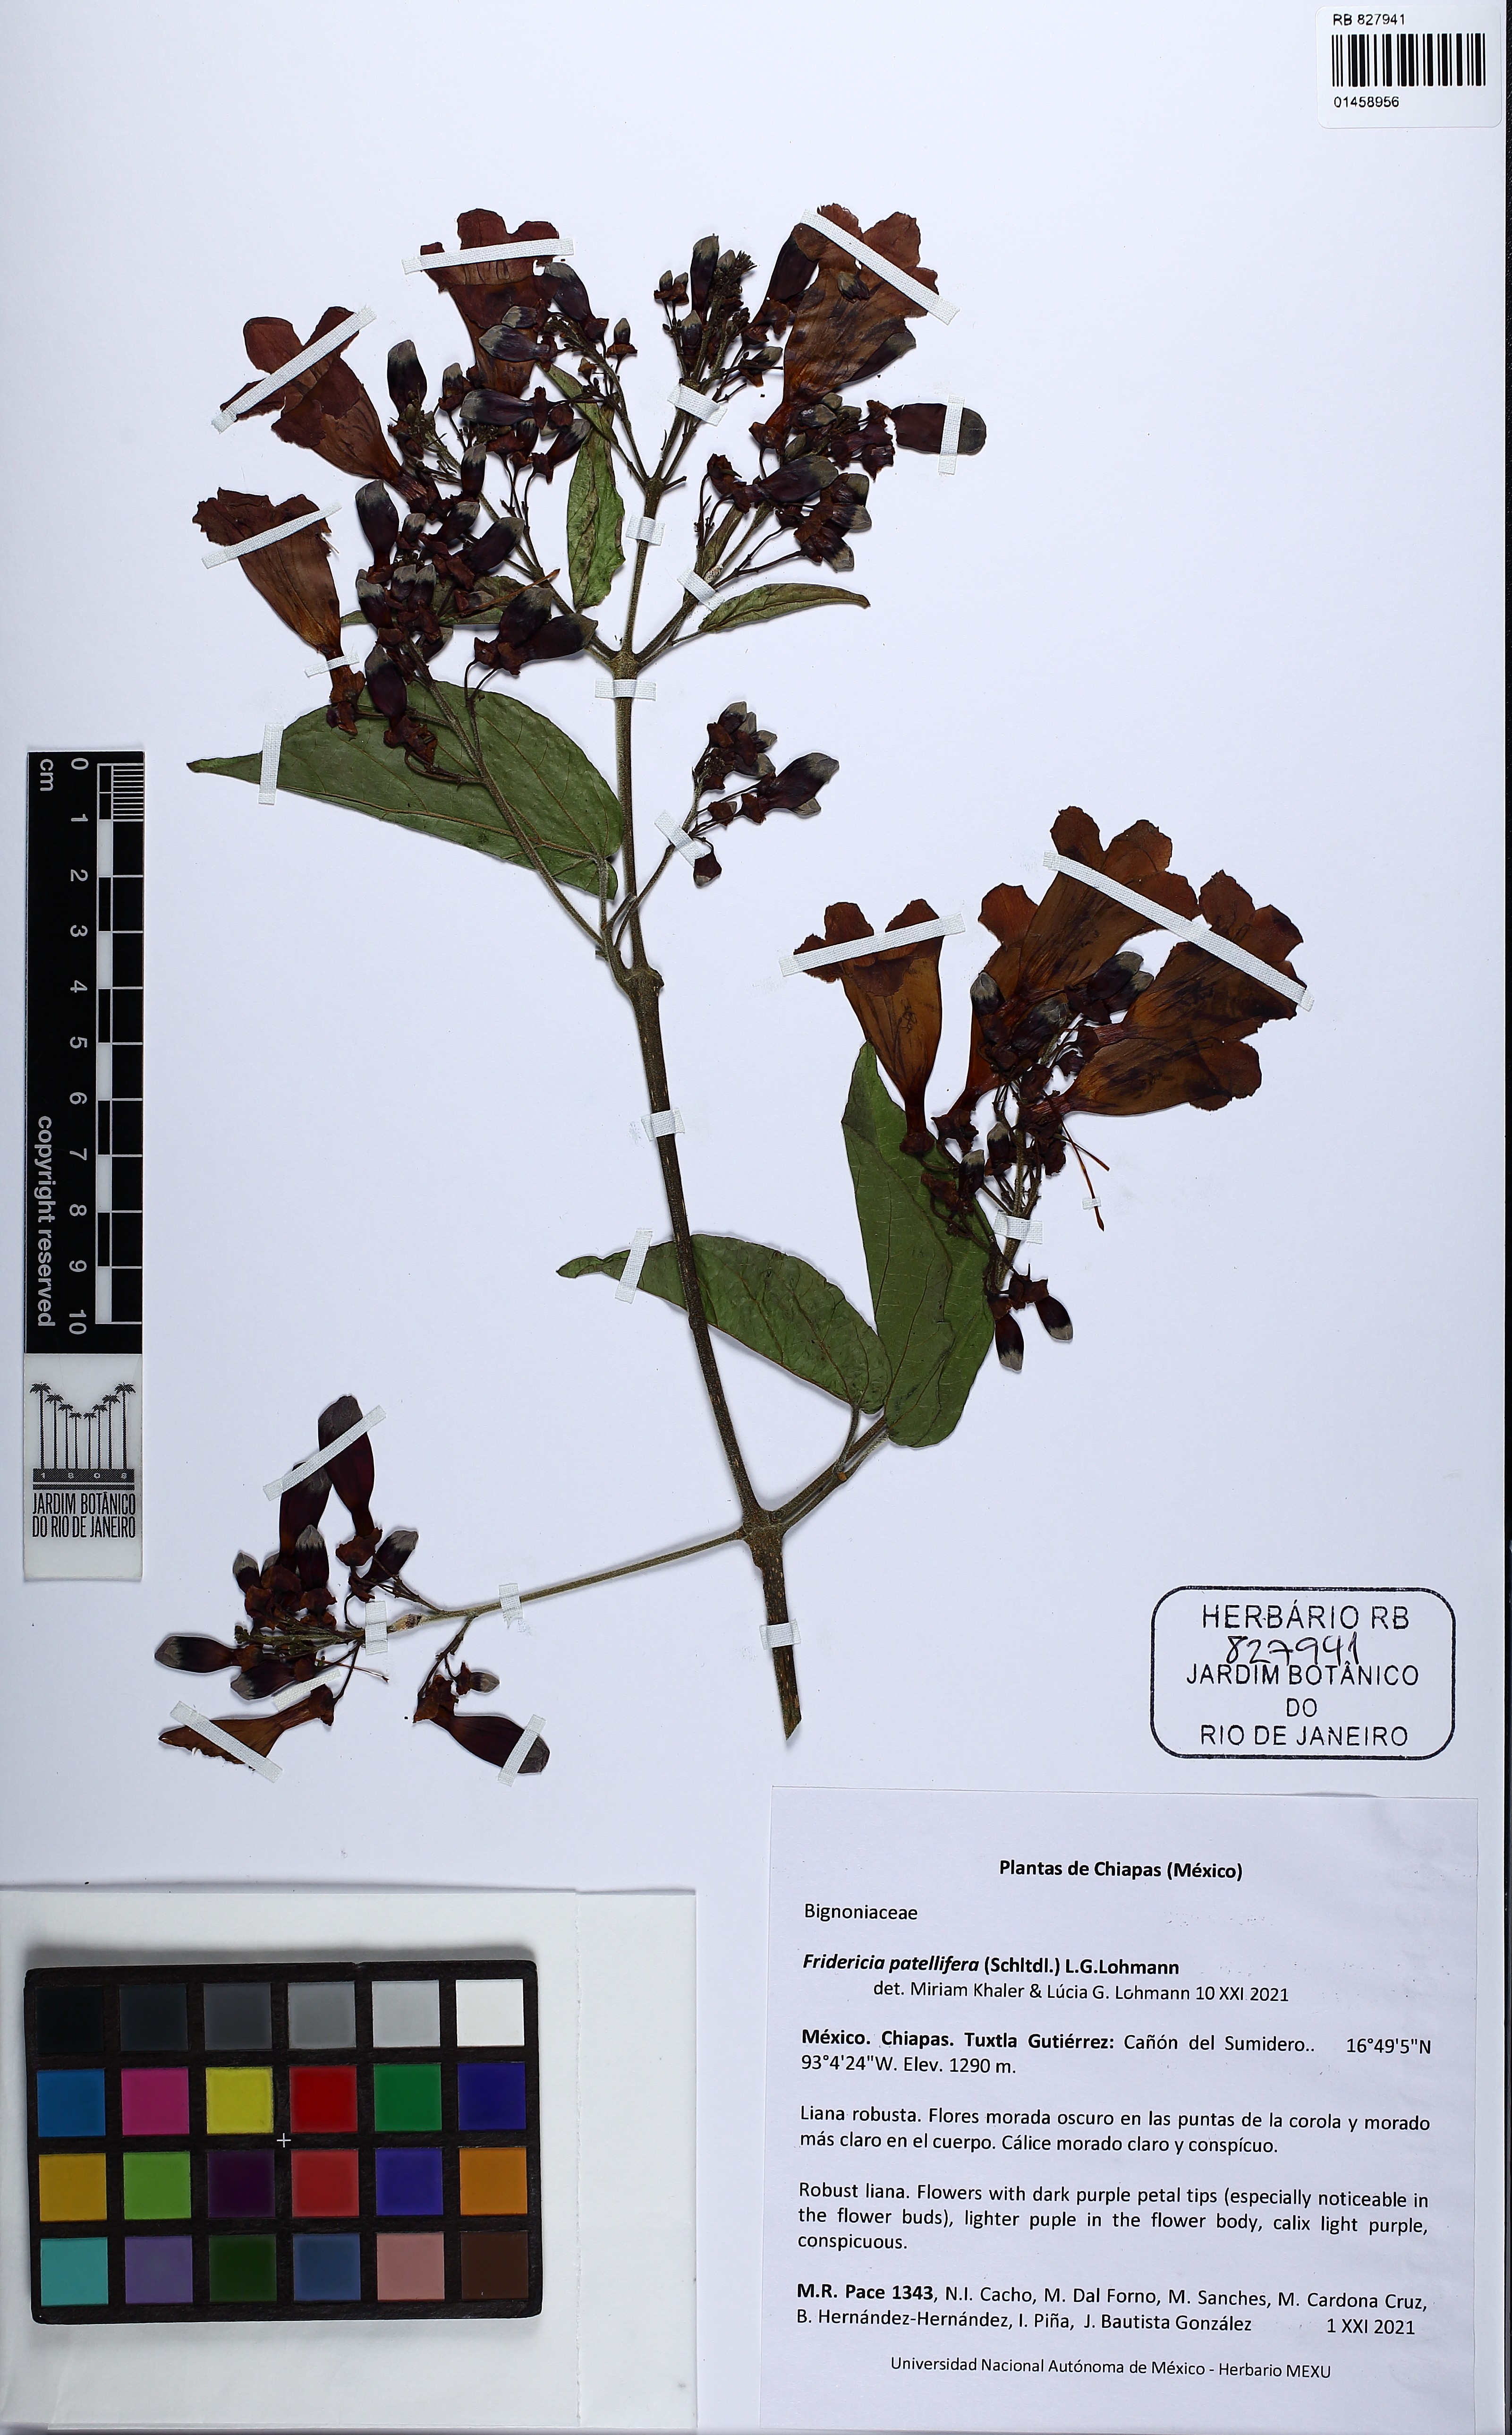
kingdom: Plantae
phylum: Tracheophyta
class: Magnoliopsida
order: Lamiales
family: Bignoniaceae
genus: Fridericia
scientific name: Fridericia patellifera
